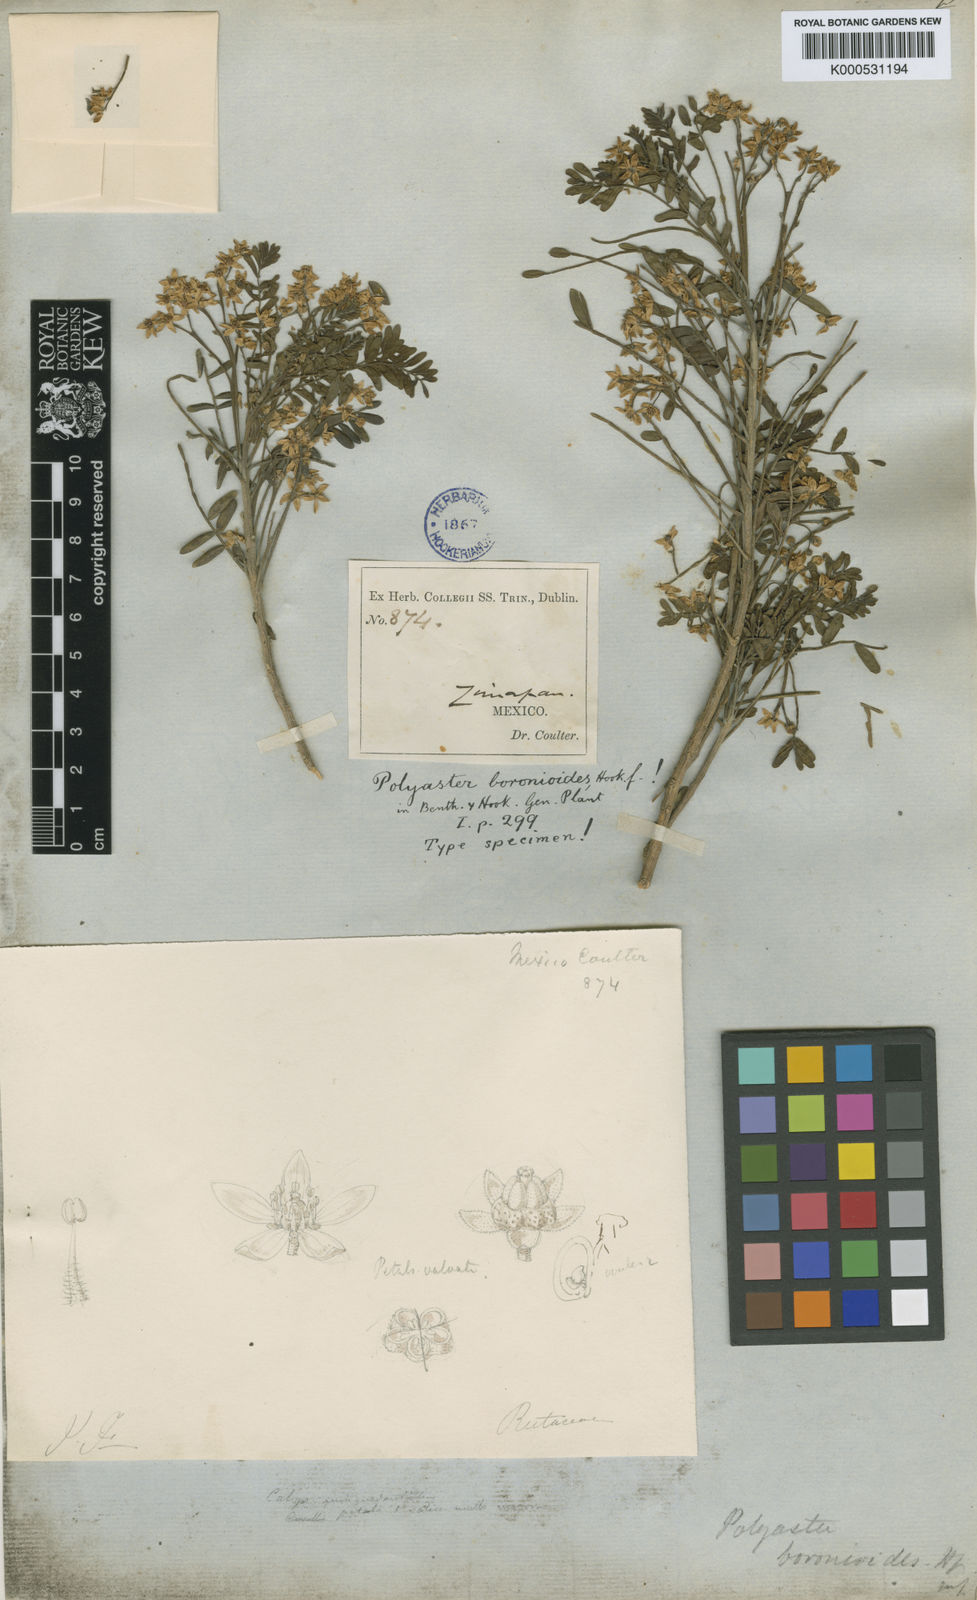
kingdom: Plantae
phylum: Tracheophyta
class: Magnoliopsida
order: Sapindales
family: Rutaceae
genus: Polyaster
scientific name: Polyaster boronioides
